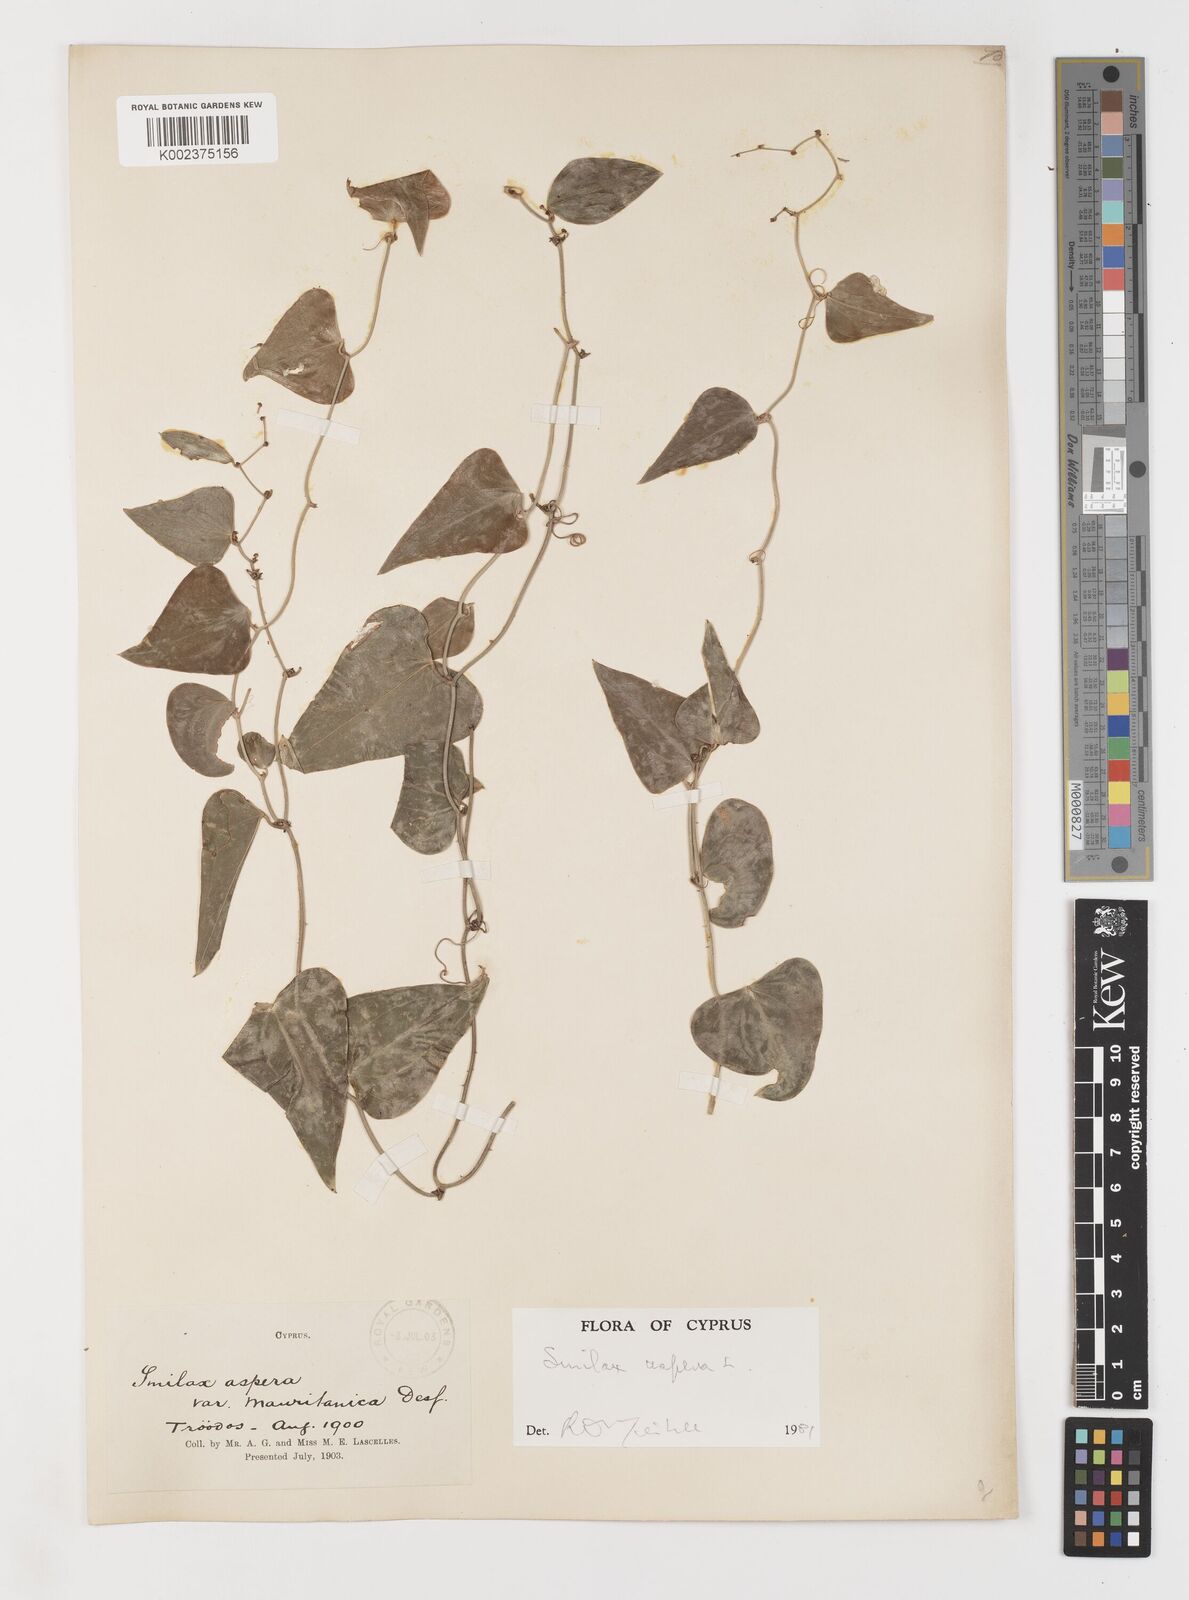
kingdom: Plantae
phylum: Tracheophyta
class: Liliopsida
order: Liliales
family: Smilacaceae
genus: Smilax
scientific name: Smilax aspera
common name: Common smilax
